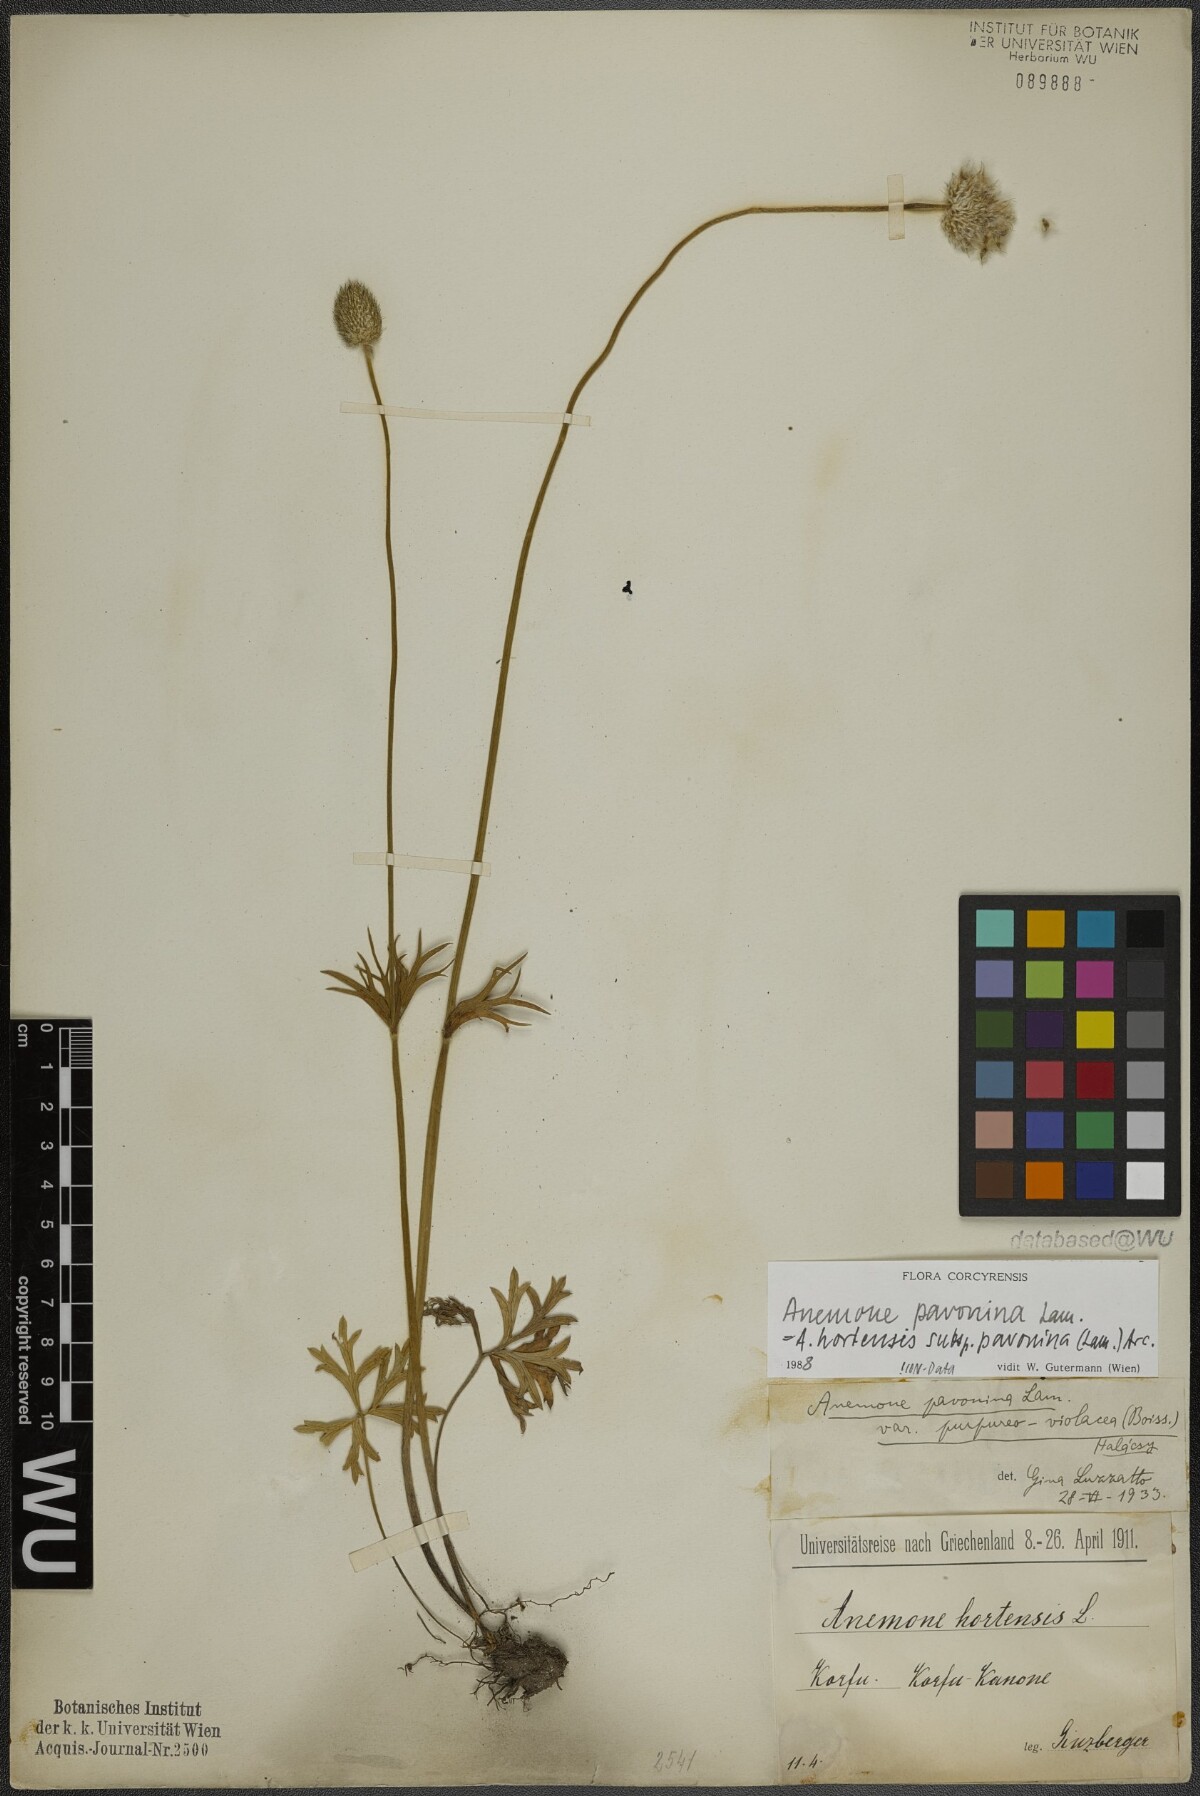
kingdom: Plantae
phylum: Tracheophyta
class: Magnoliopsida
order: Ranunculales
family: Ranunculaceae
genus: Anemone
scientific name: Anemone pavonina
